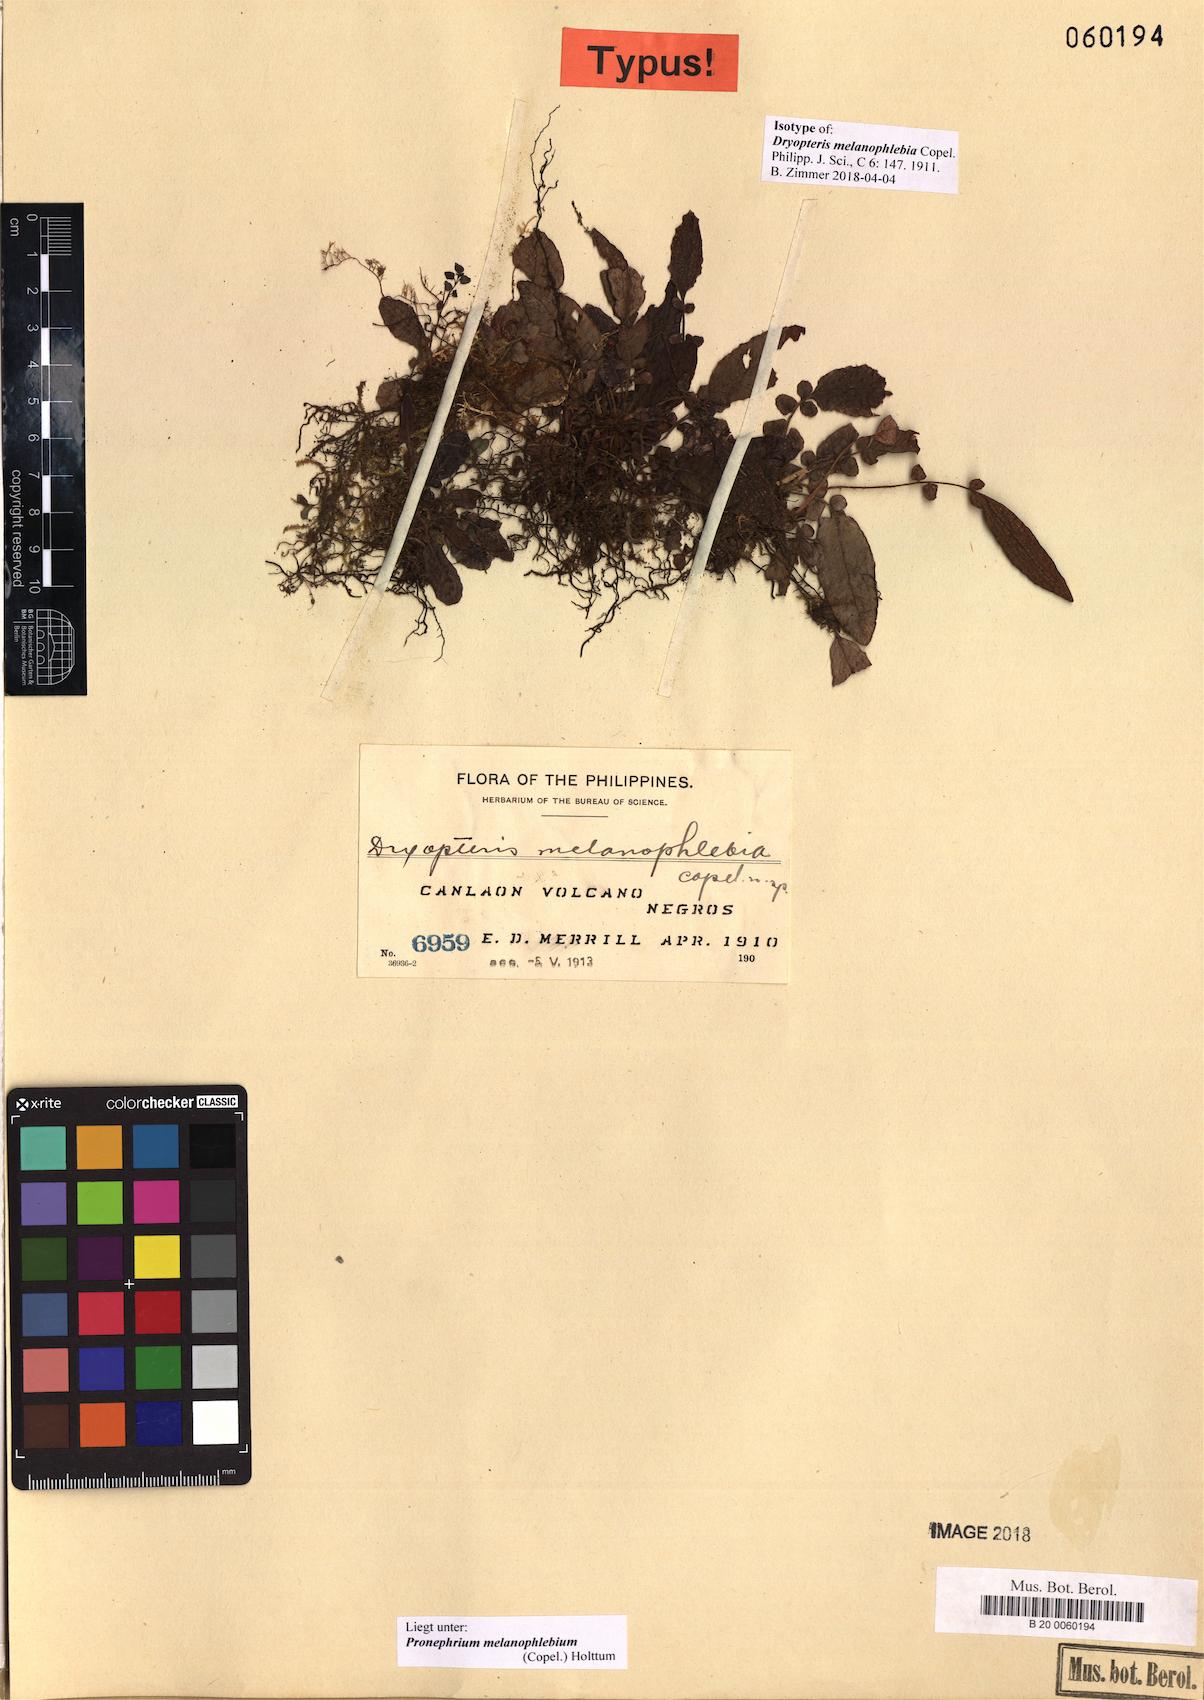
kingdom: Plantae
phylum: Tracheophyta
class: Polypodiopsida
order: Polypodiales
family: Thelypteridaceae
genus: Sphaerostephanos
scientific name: Sphaerostephanos melanophlebius
